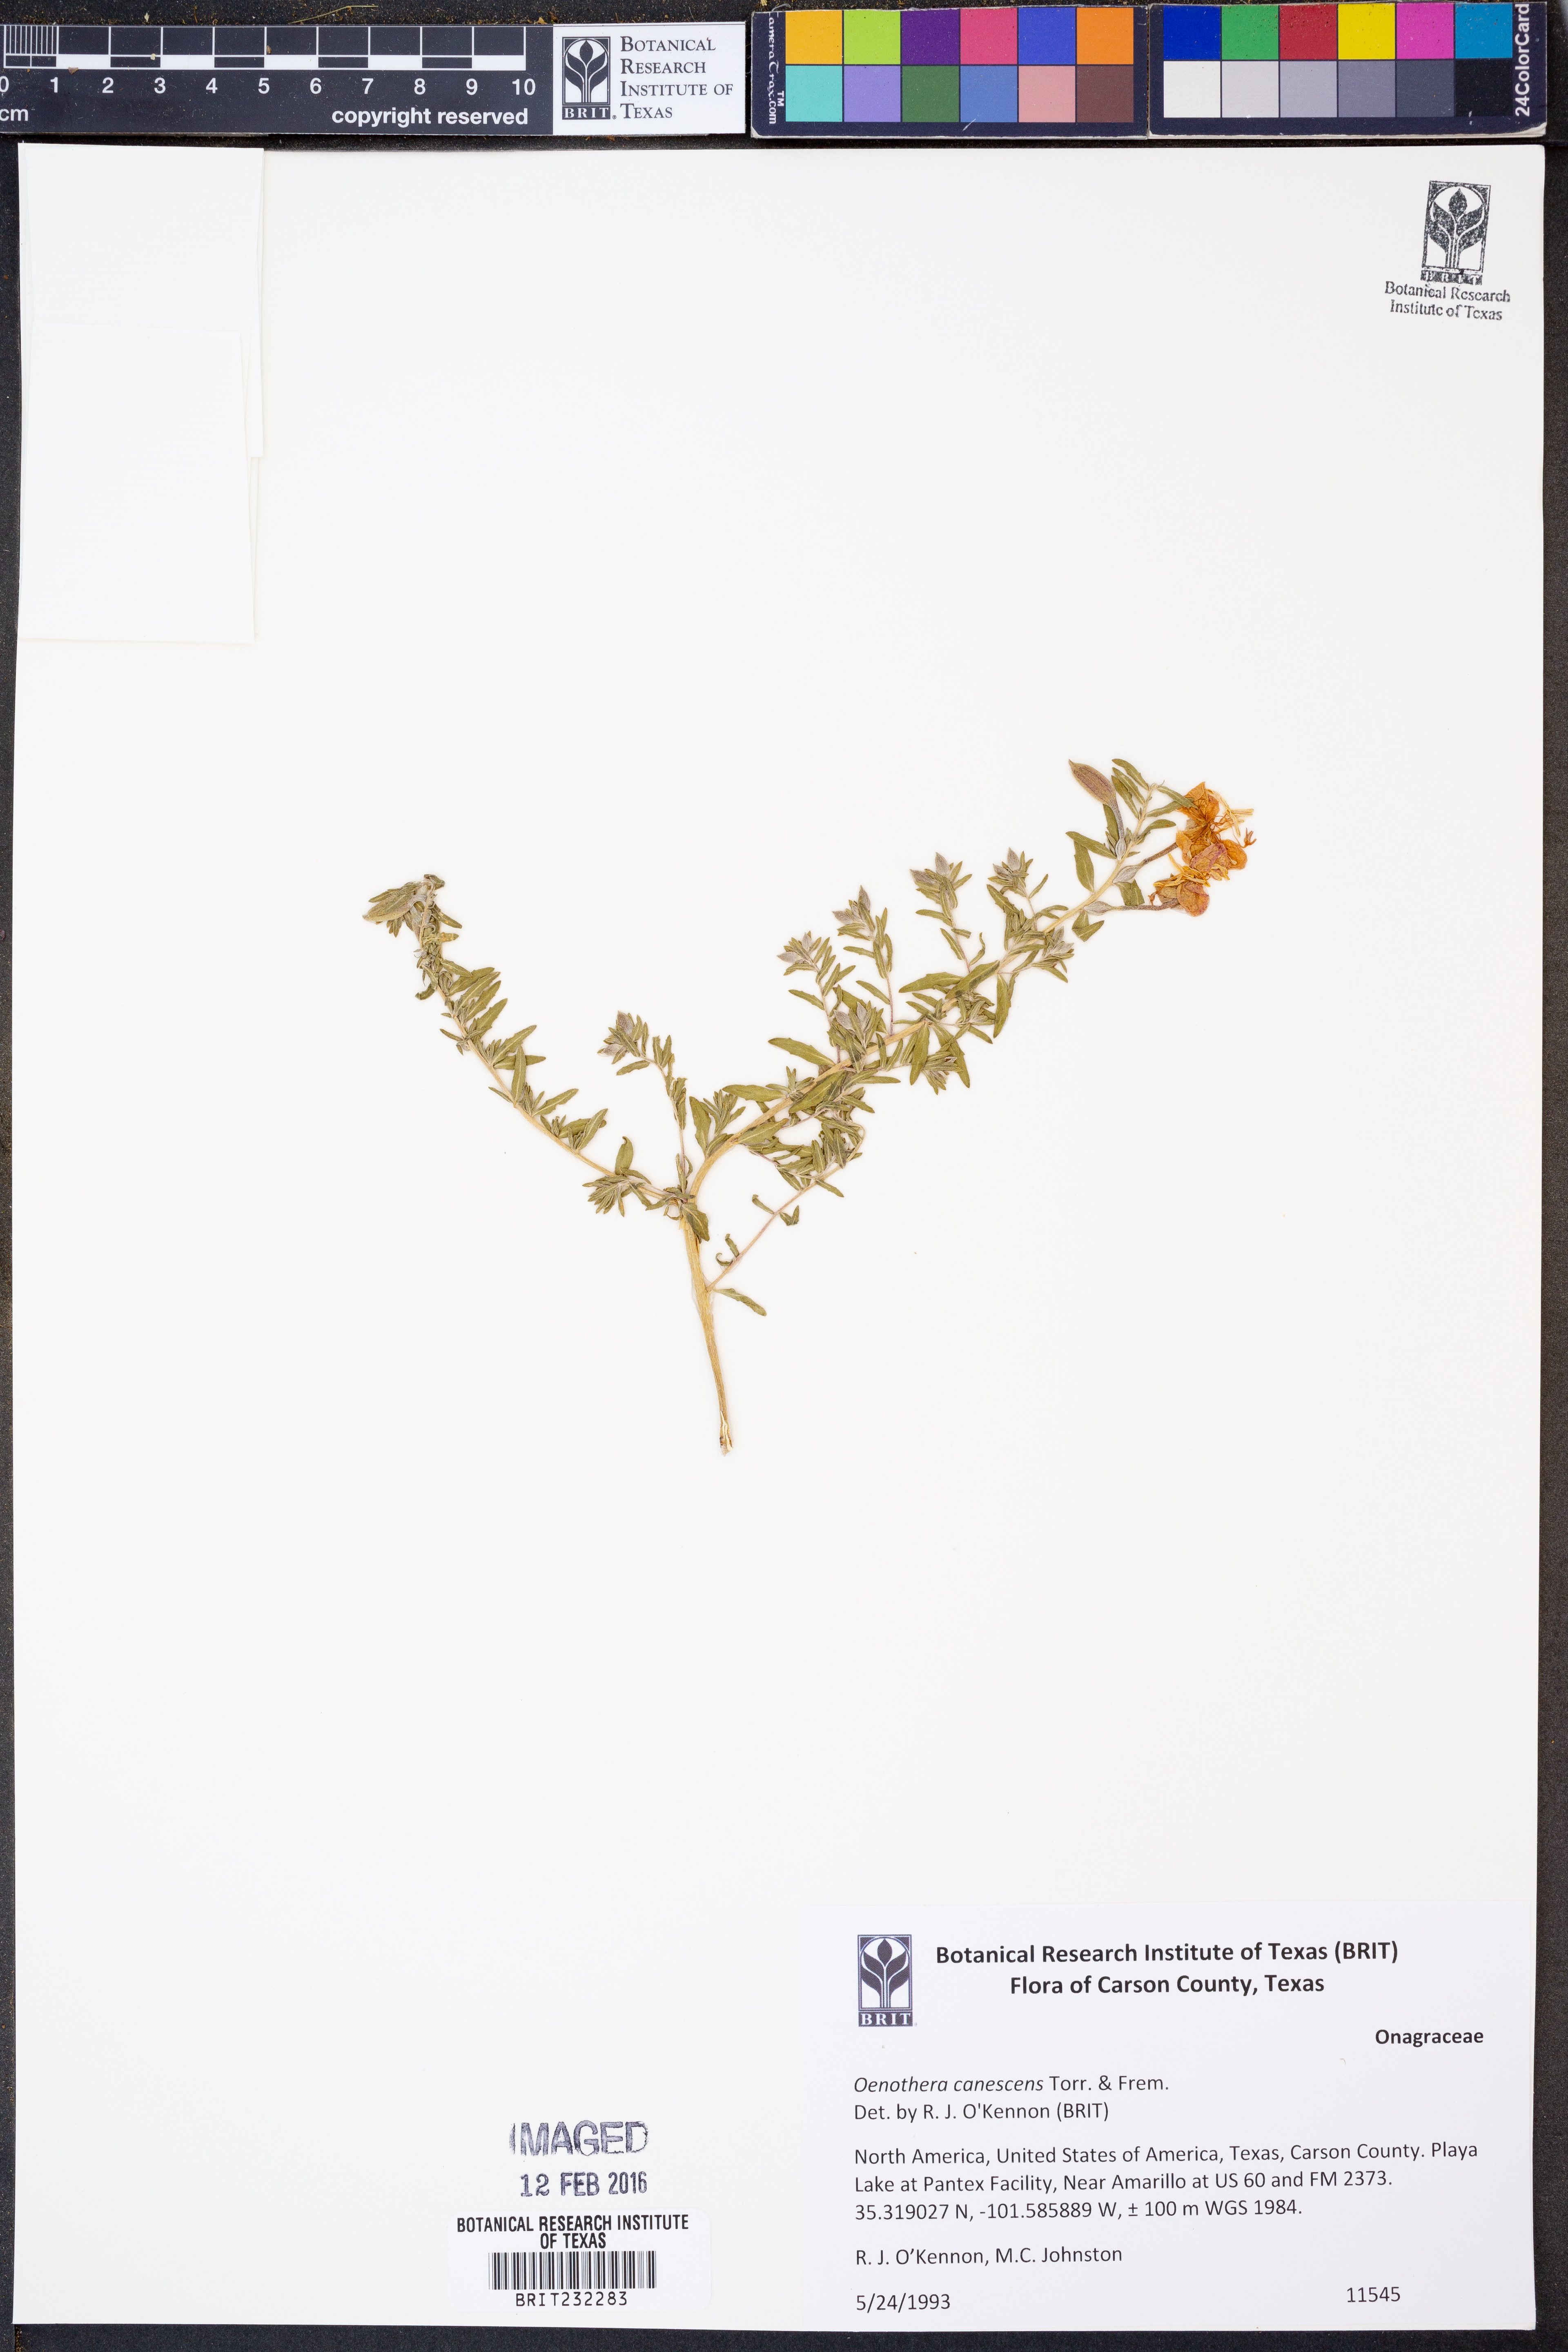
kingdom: Plantae
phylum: Tracheophyta
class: Magnoliopsida
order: Myrtales
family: Onagraceae
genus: Oenothera
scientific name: Oenothera canescens
